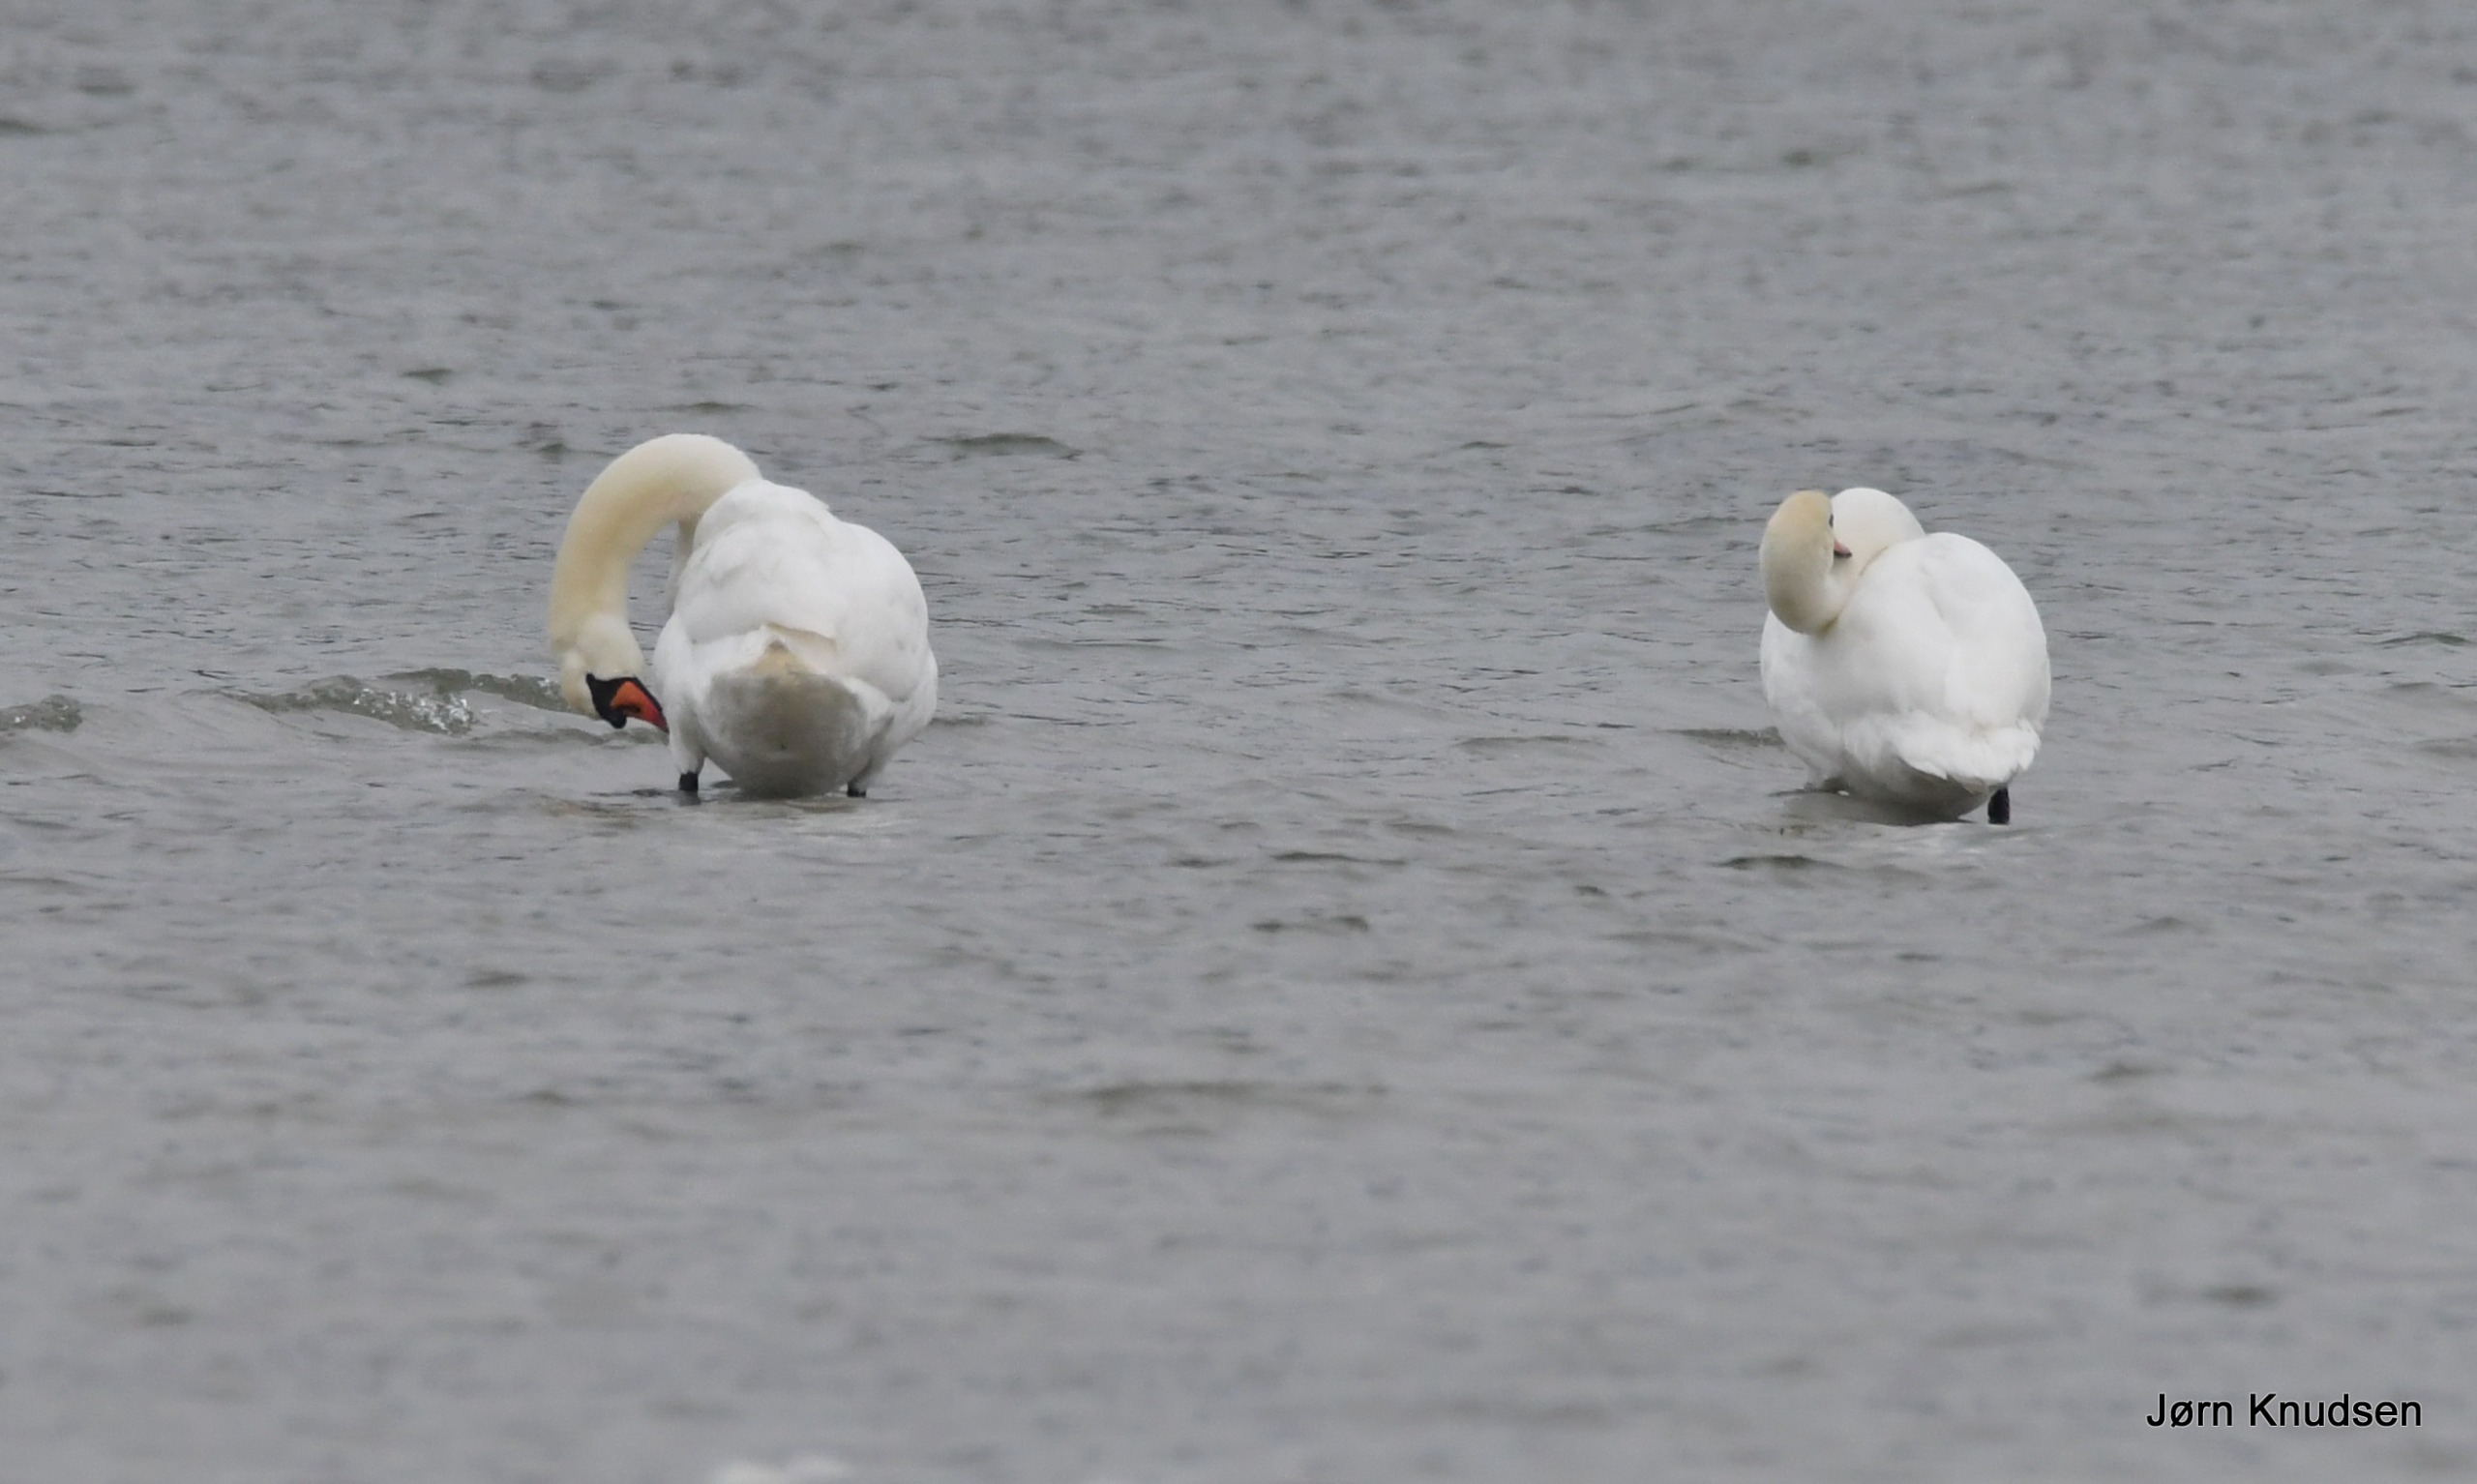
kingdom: Animalia
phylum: Chordata
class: Aves
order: Anseriformes
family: Anatidae
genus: Cygnus
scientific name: Cygnus olor
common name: Knopsvane
